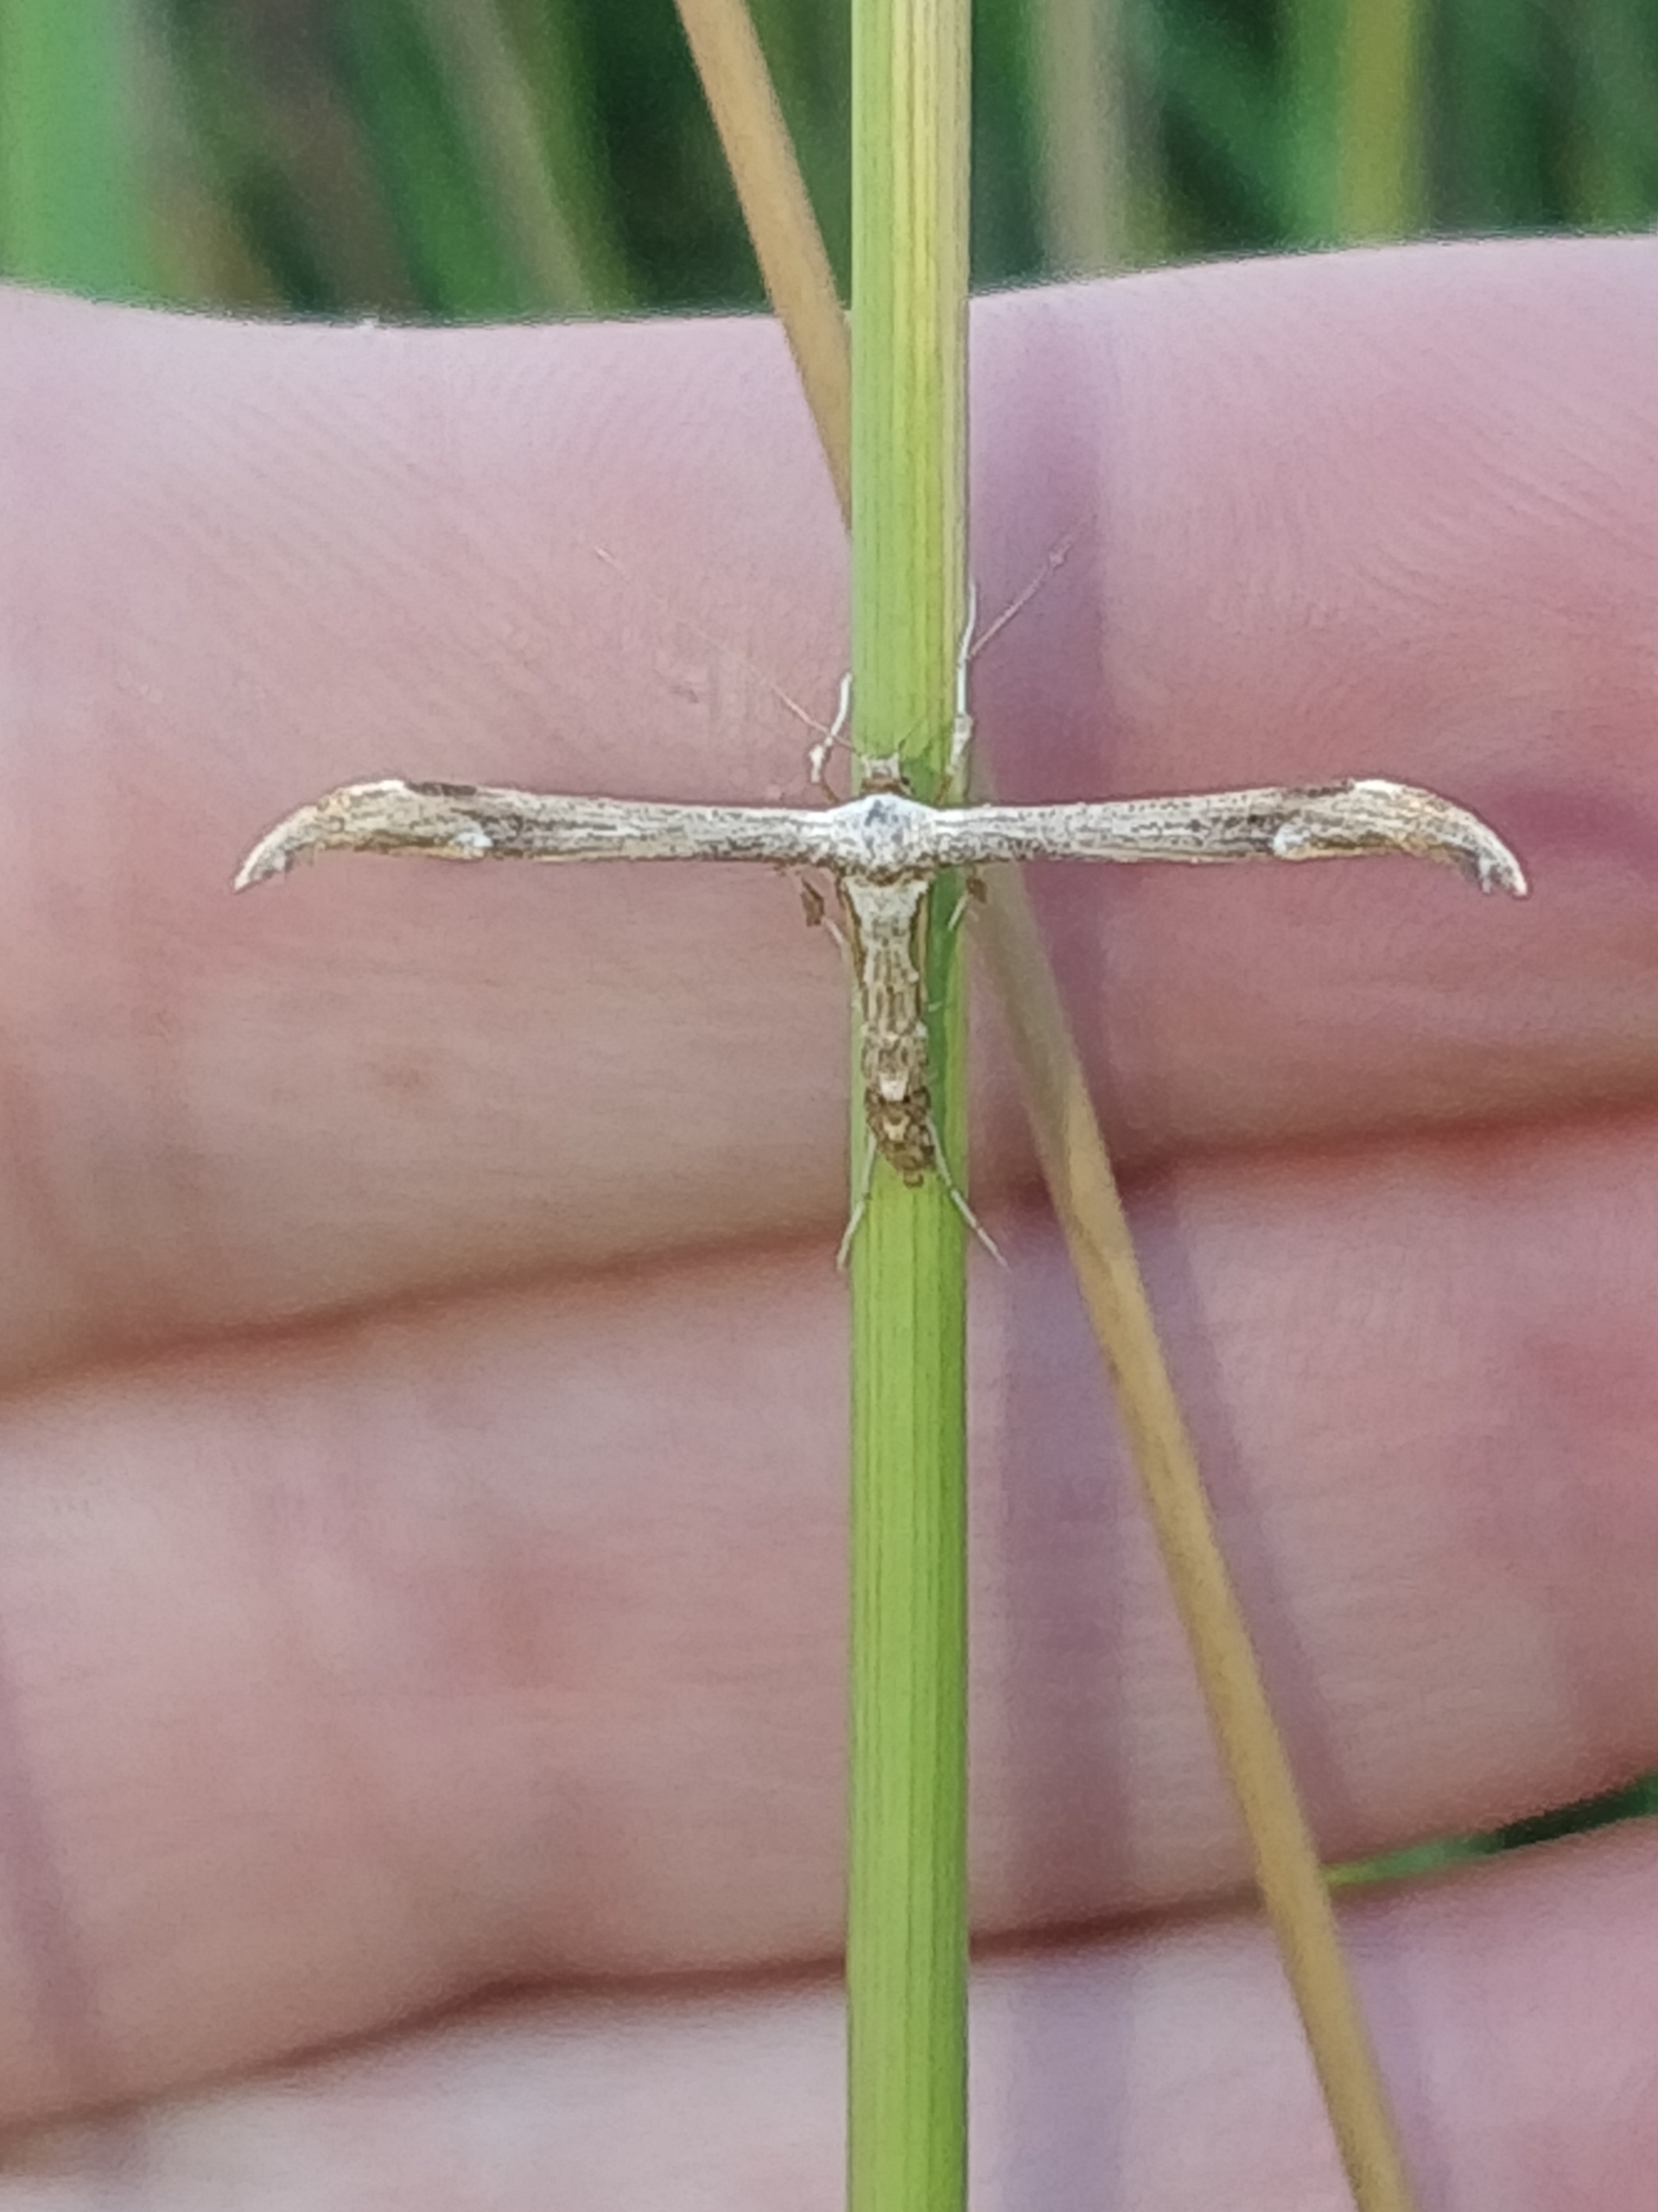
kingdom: Animalia
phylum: Arthropoda
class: Insecta
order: Lepidoptera
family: Pterophoridae
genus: Oidaematophorus
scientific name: Oidaematophorus lithodactyla
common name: Alantfjermøl
